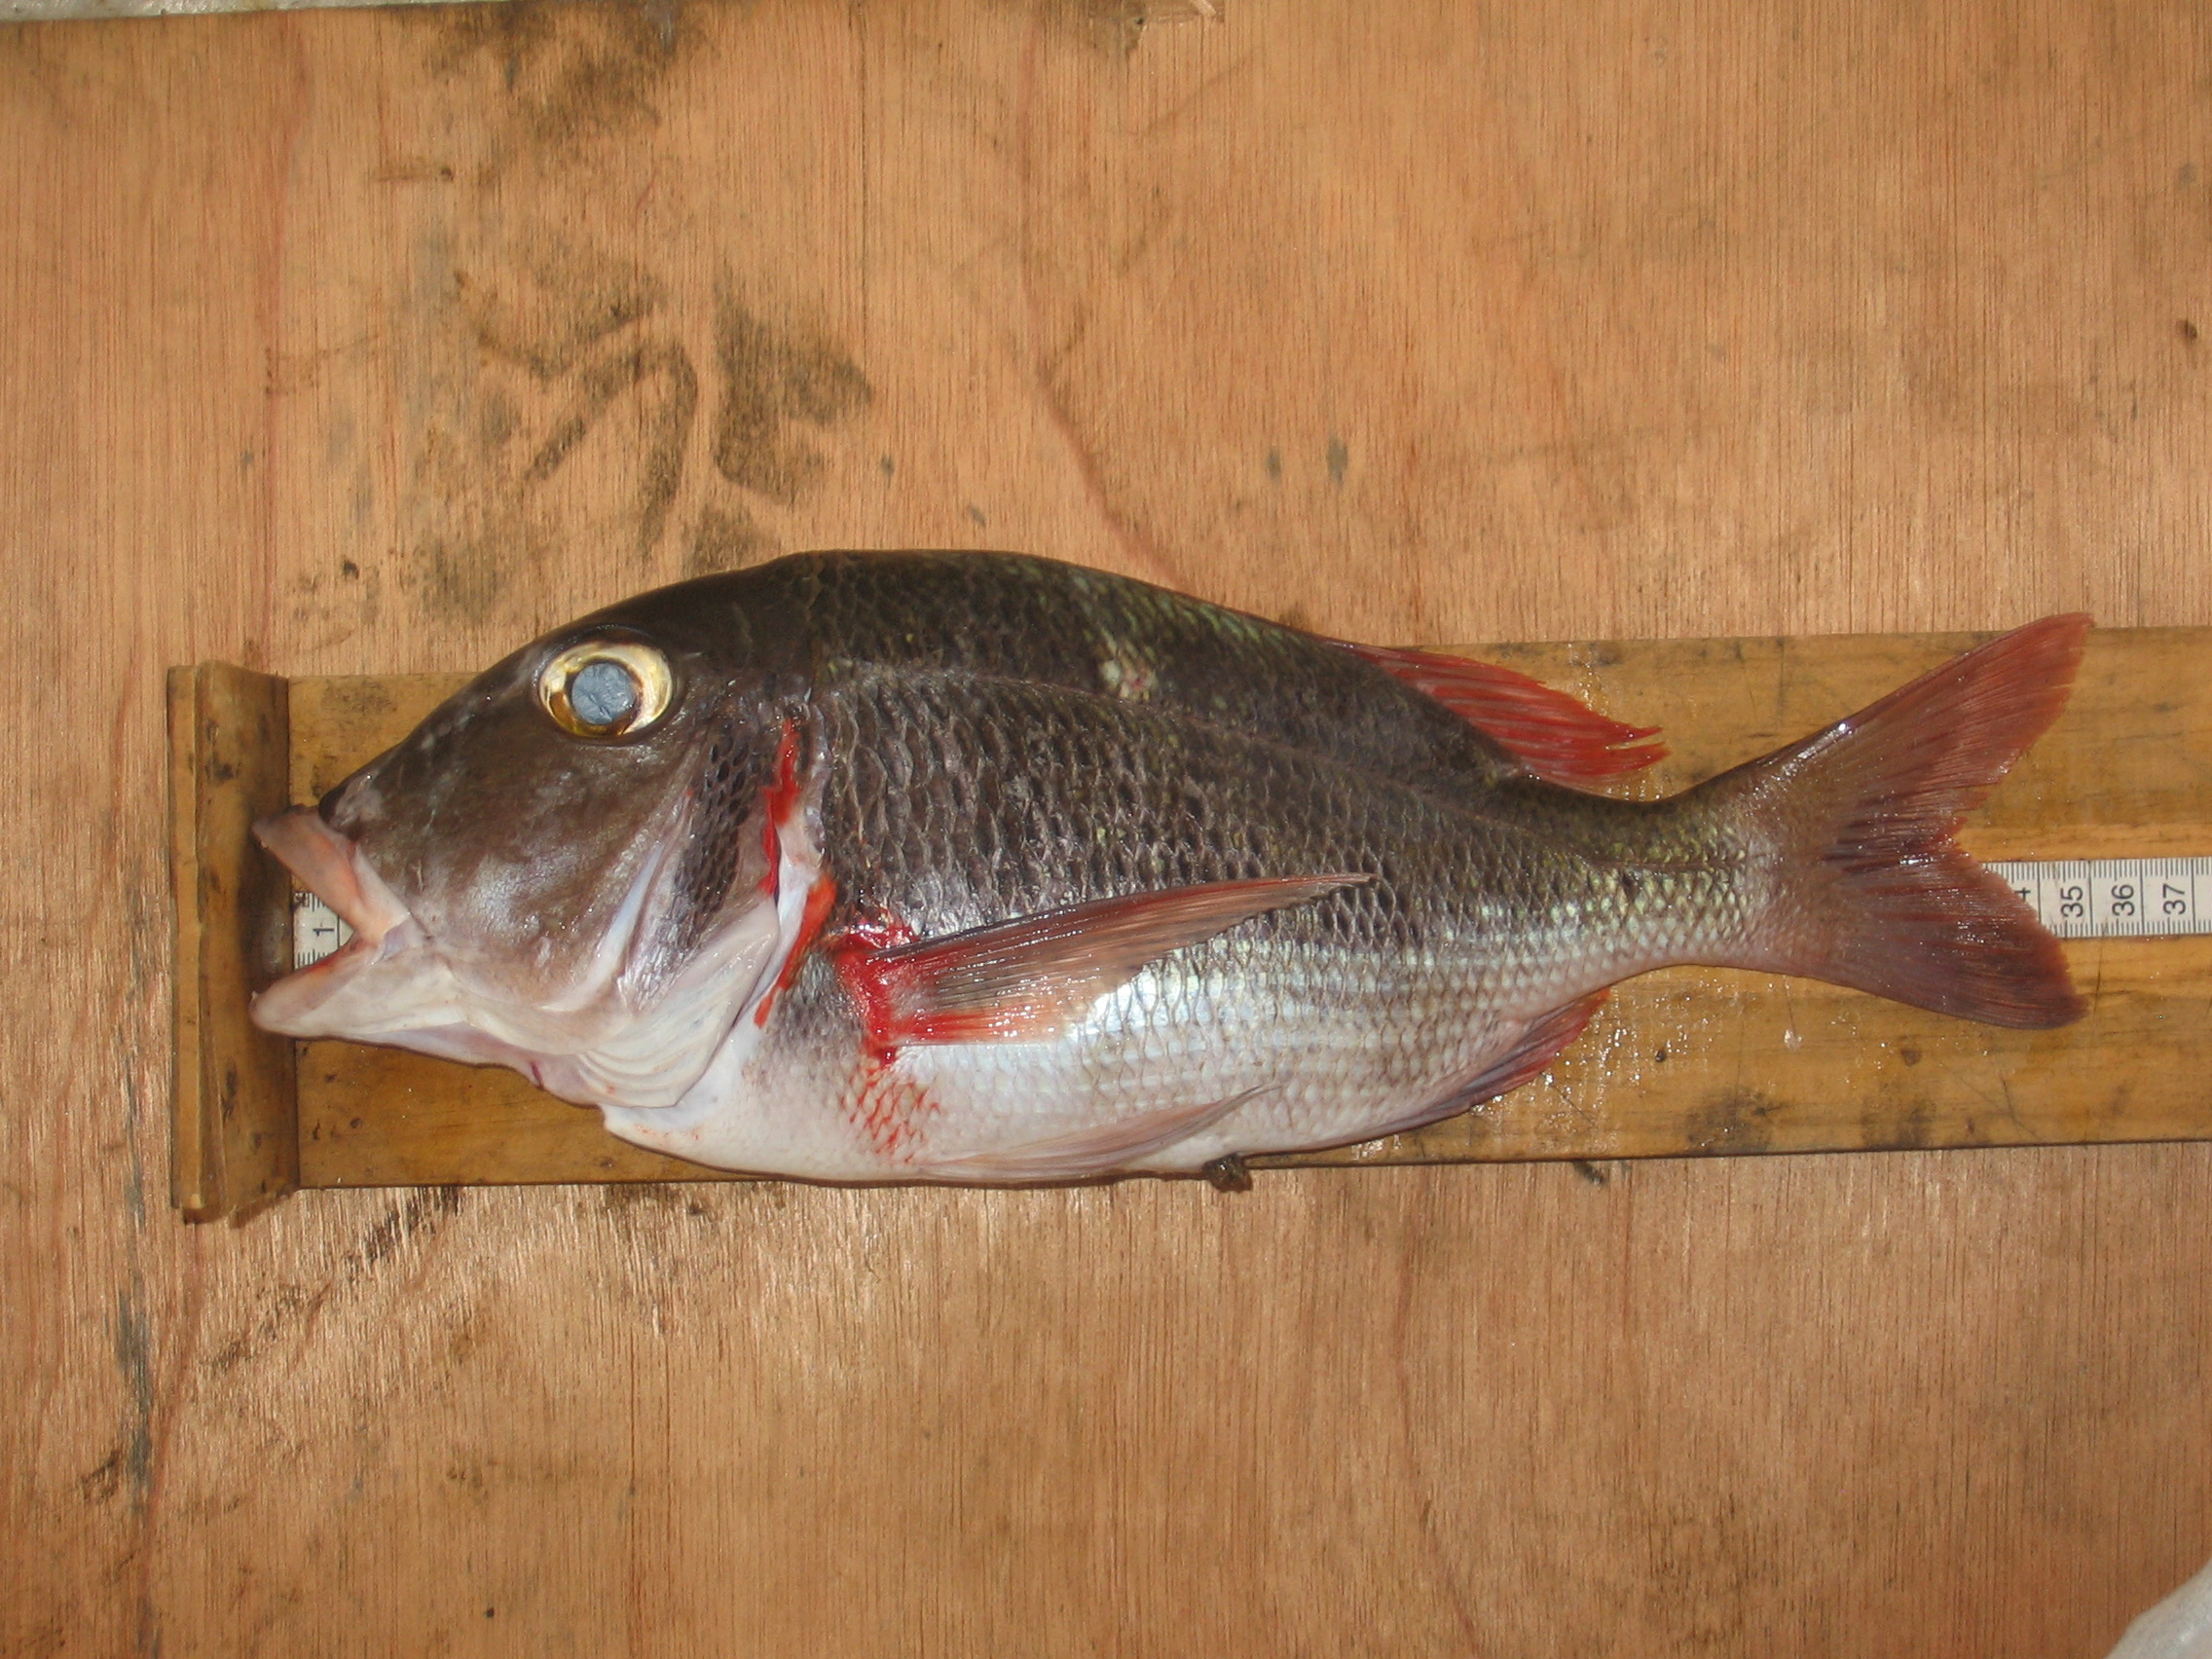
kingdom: Animalia
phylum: Chordata
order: Perciformes
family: Lethrinidae
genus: Lethrinus
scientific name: Lethrinus mahsena
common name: Sky emperor
